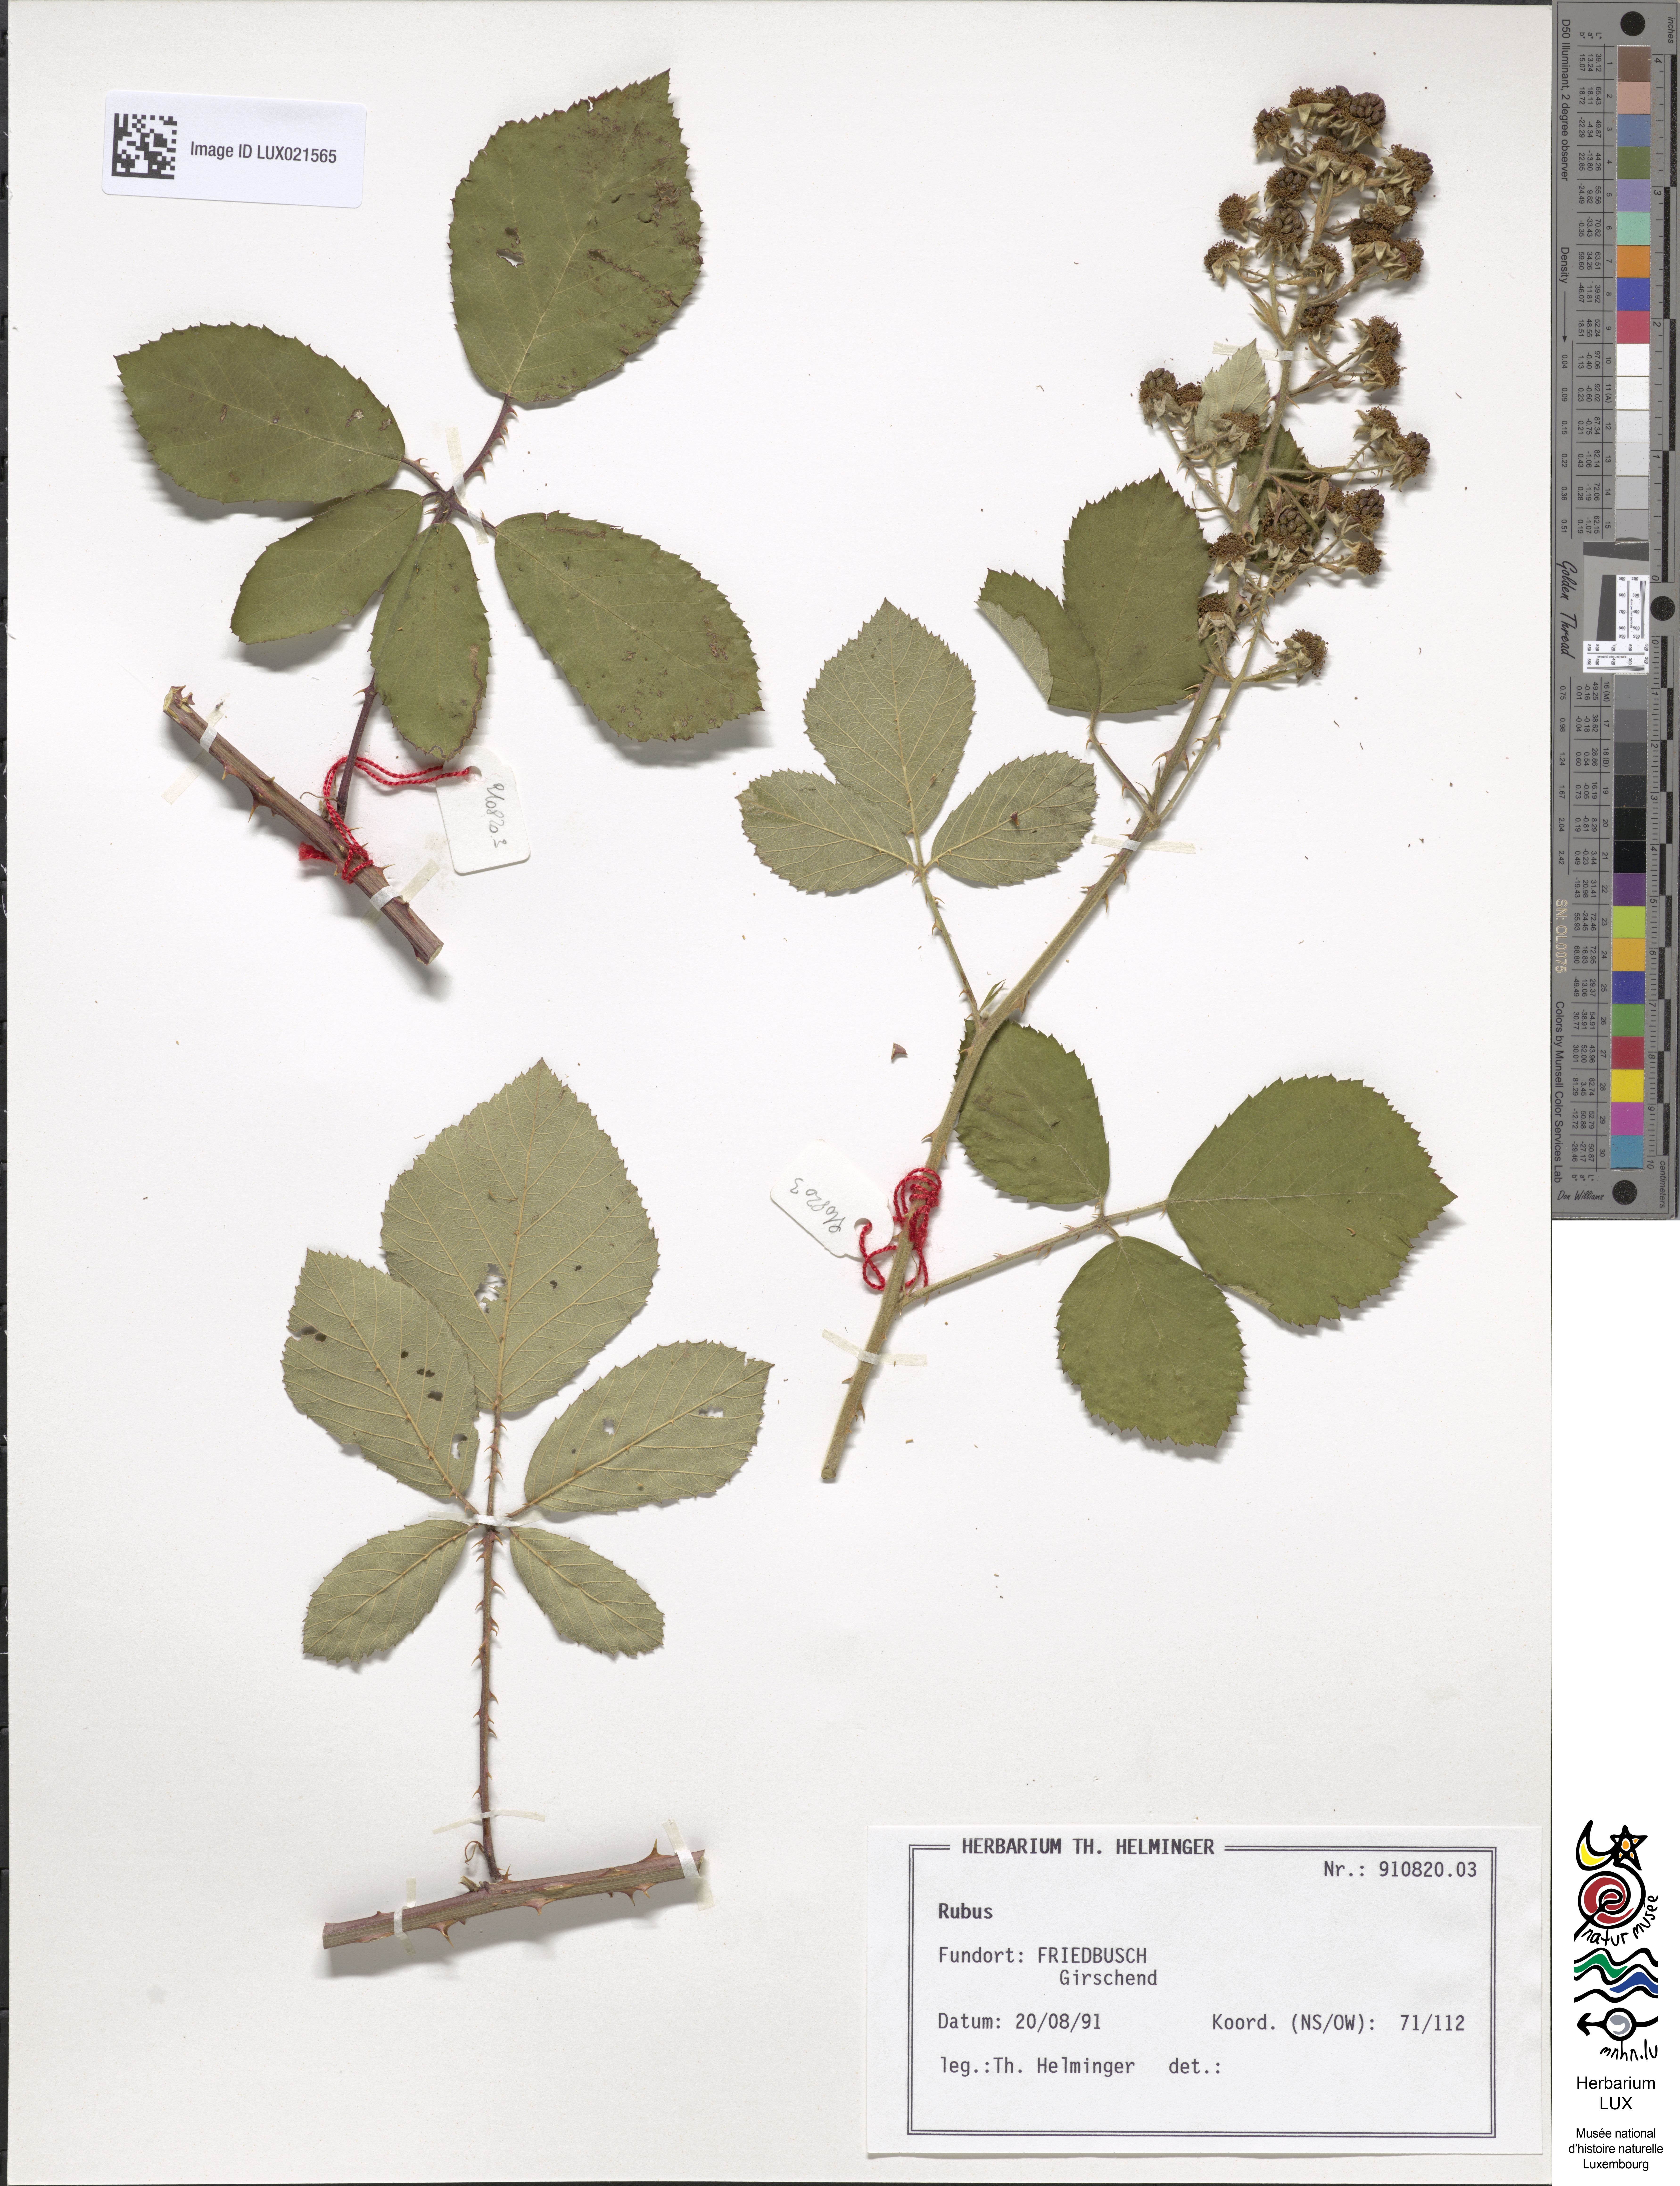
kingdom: Plantae
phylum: Tracheophyta
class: Magnoliopsida
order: Rosales
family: Rosaceae
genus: Rubus
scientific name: Rubus
